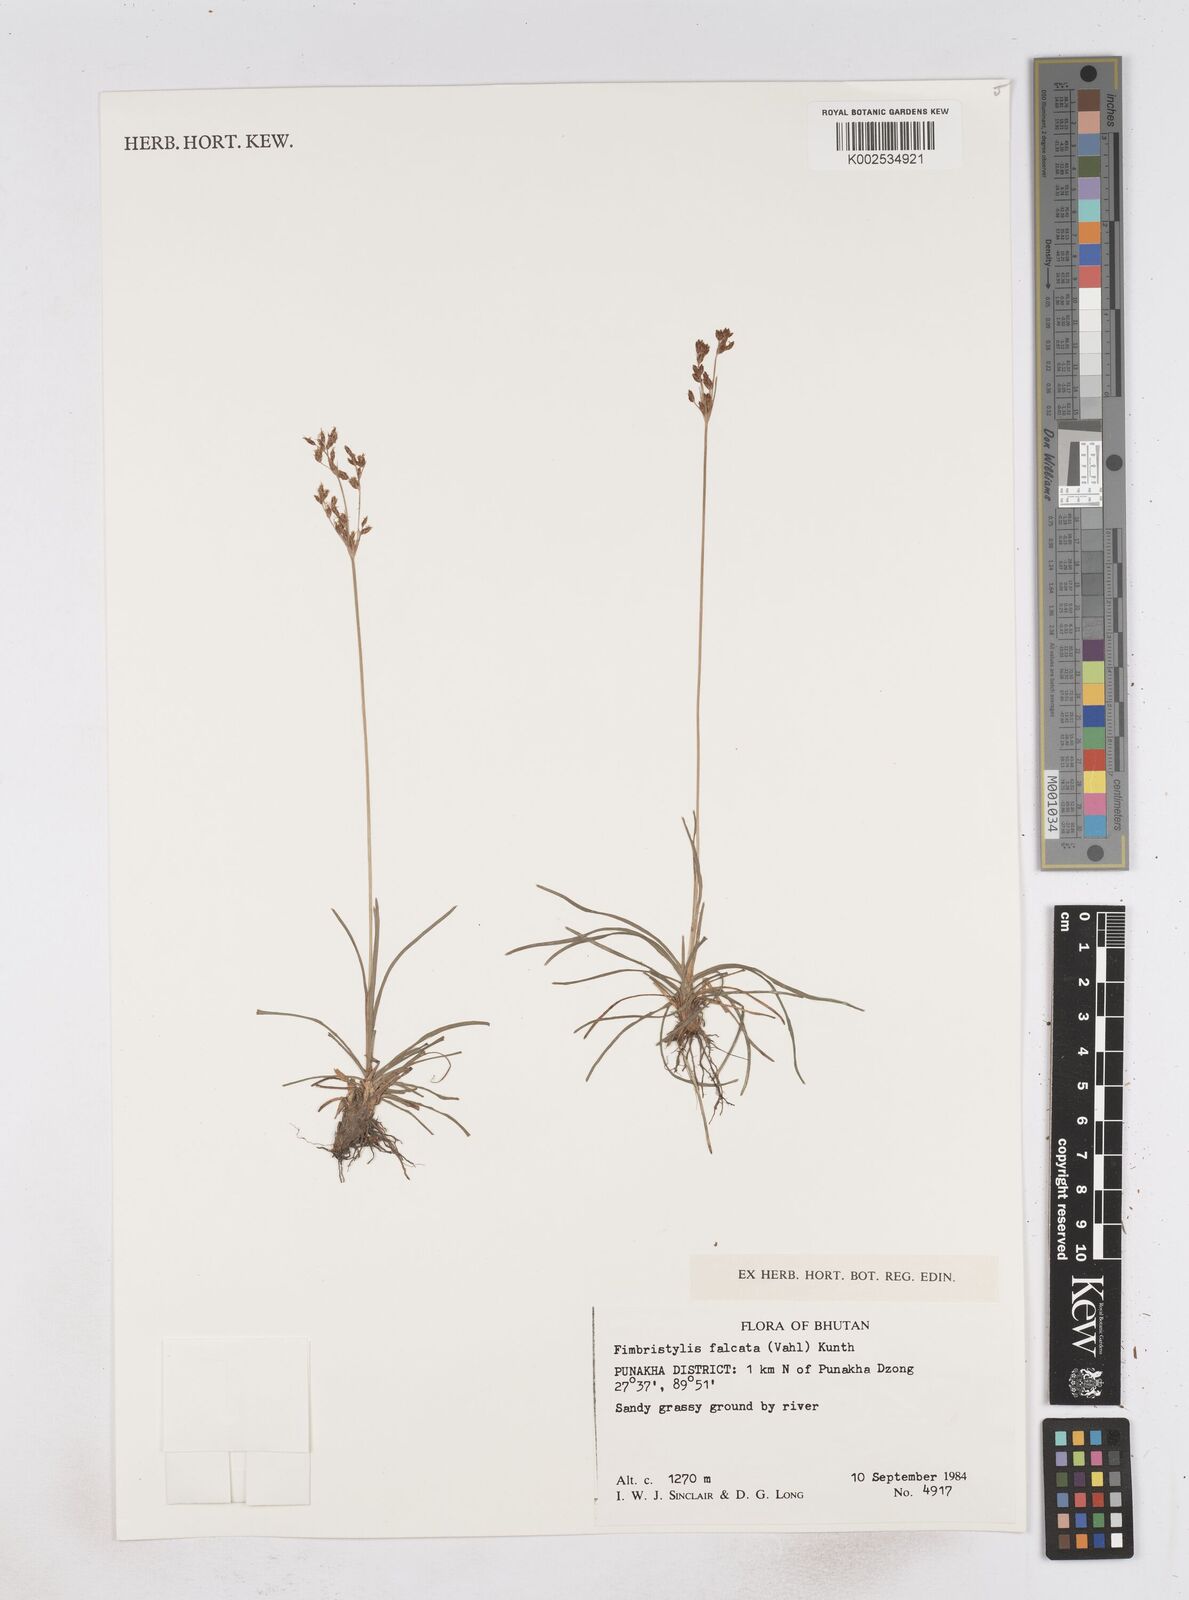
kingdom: Plantae
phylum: Tracheophyta
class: Liliopsida
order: Poales
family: Cyperaceae
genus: Fimbristylis
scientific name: Fimbristylis falcata
